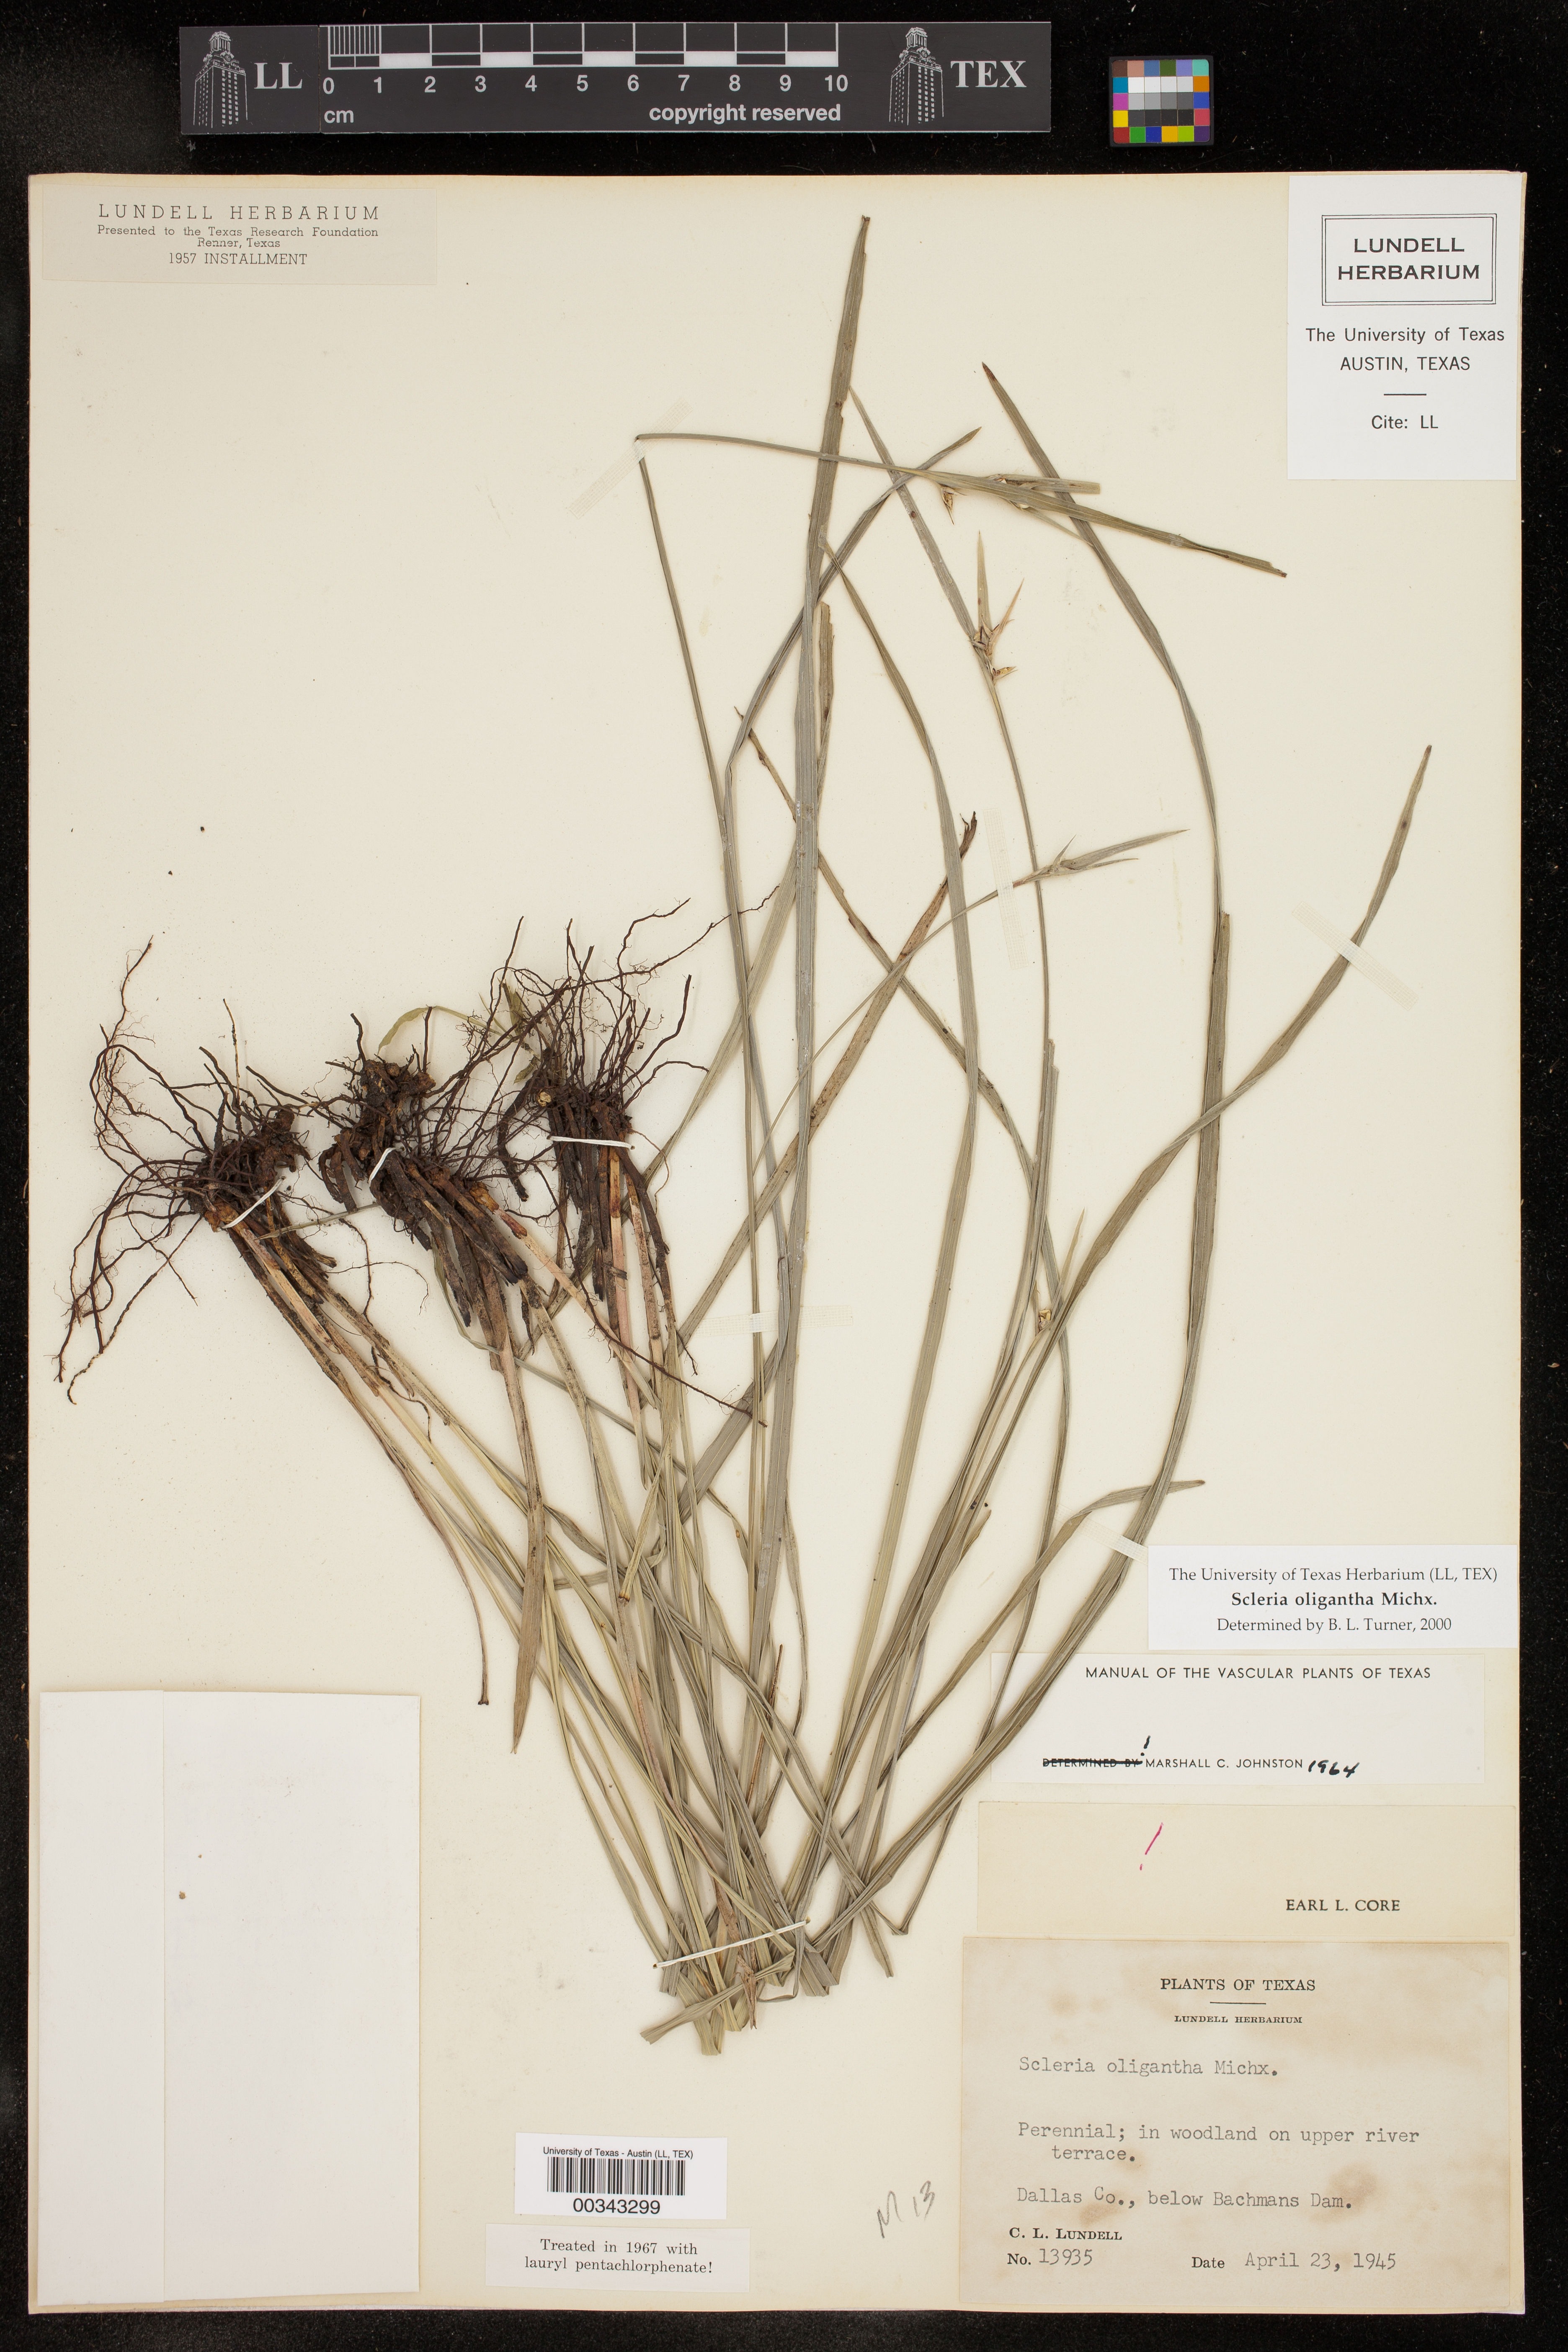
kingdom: Plantae
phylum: Tracheophyta
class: Liliopsida
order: Poales
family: Cyperaceae
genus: Scleria
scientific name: Scleria oligantha
